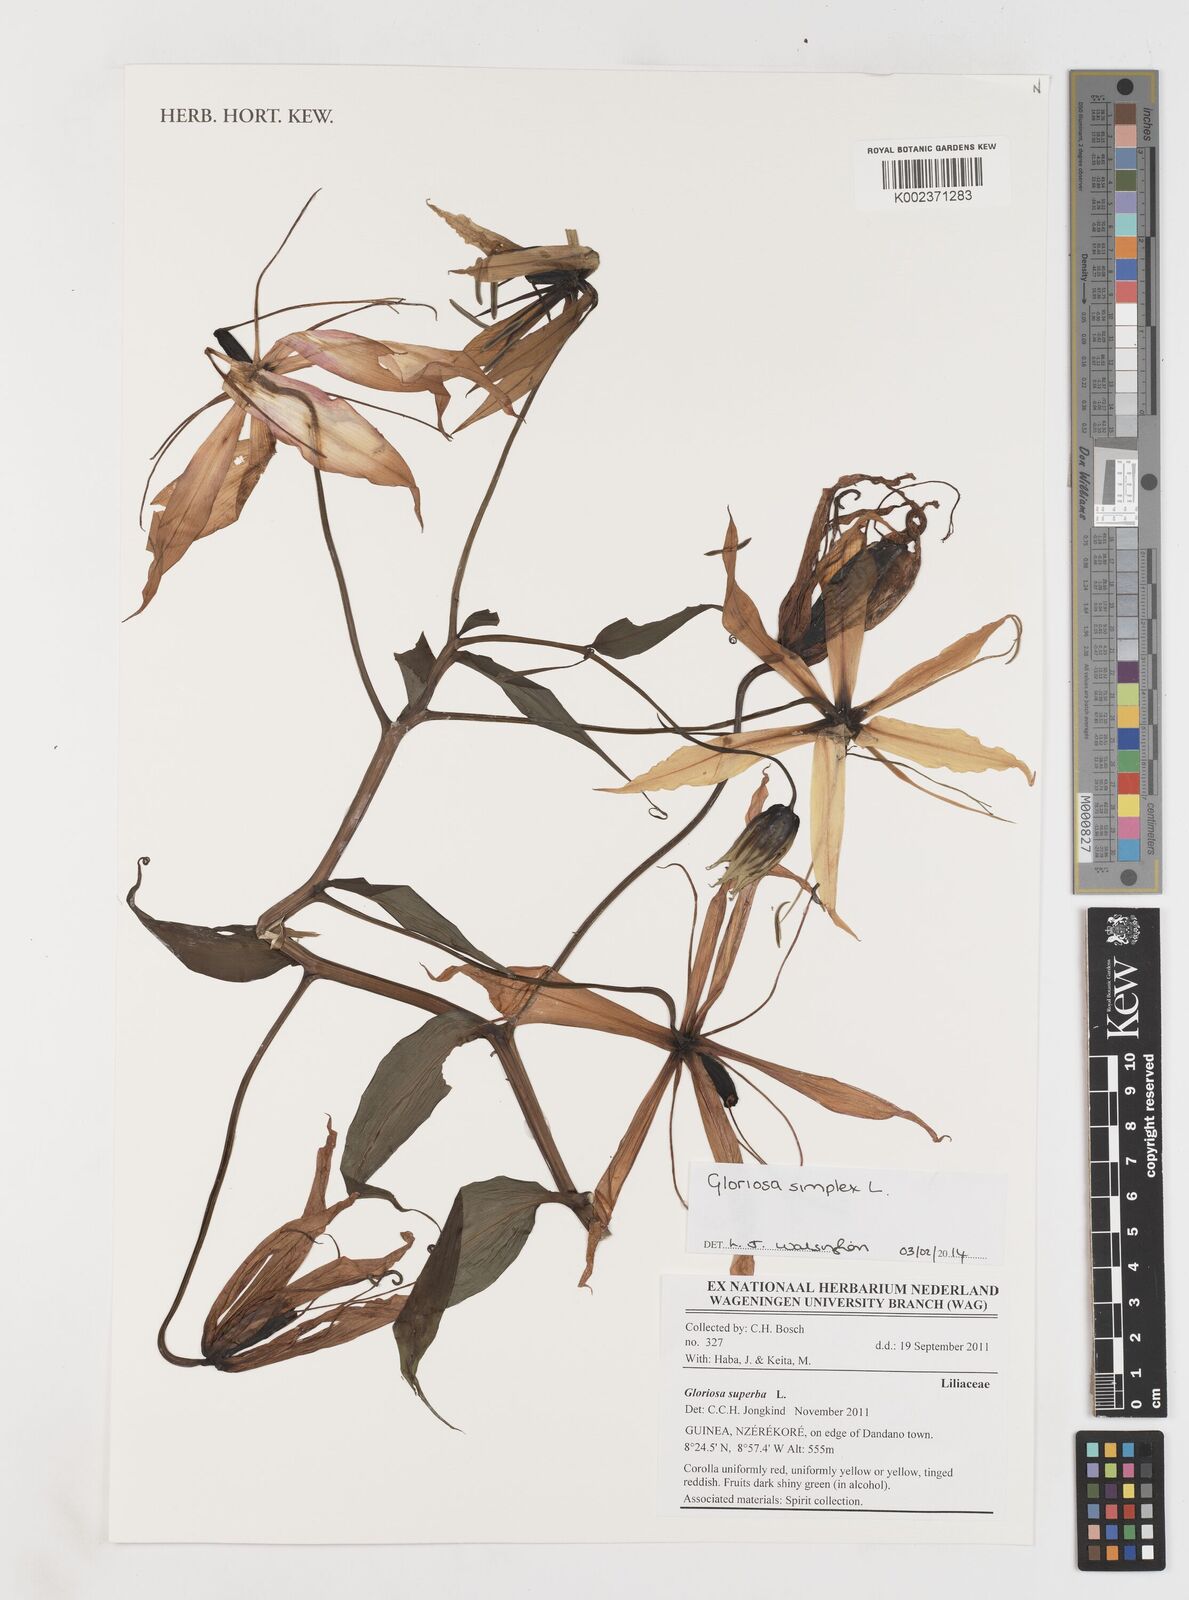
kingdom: Plantae
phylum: Tracheophyta
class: Liliopsida
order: Liliales
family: Colchicaceae
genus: Gloriosa
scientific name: Gloriosa simplex
